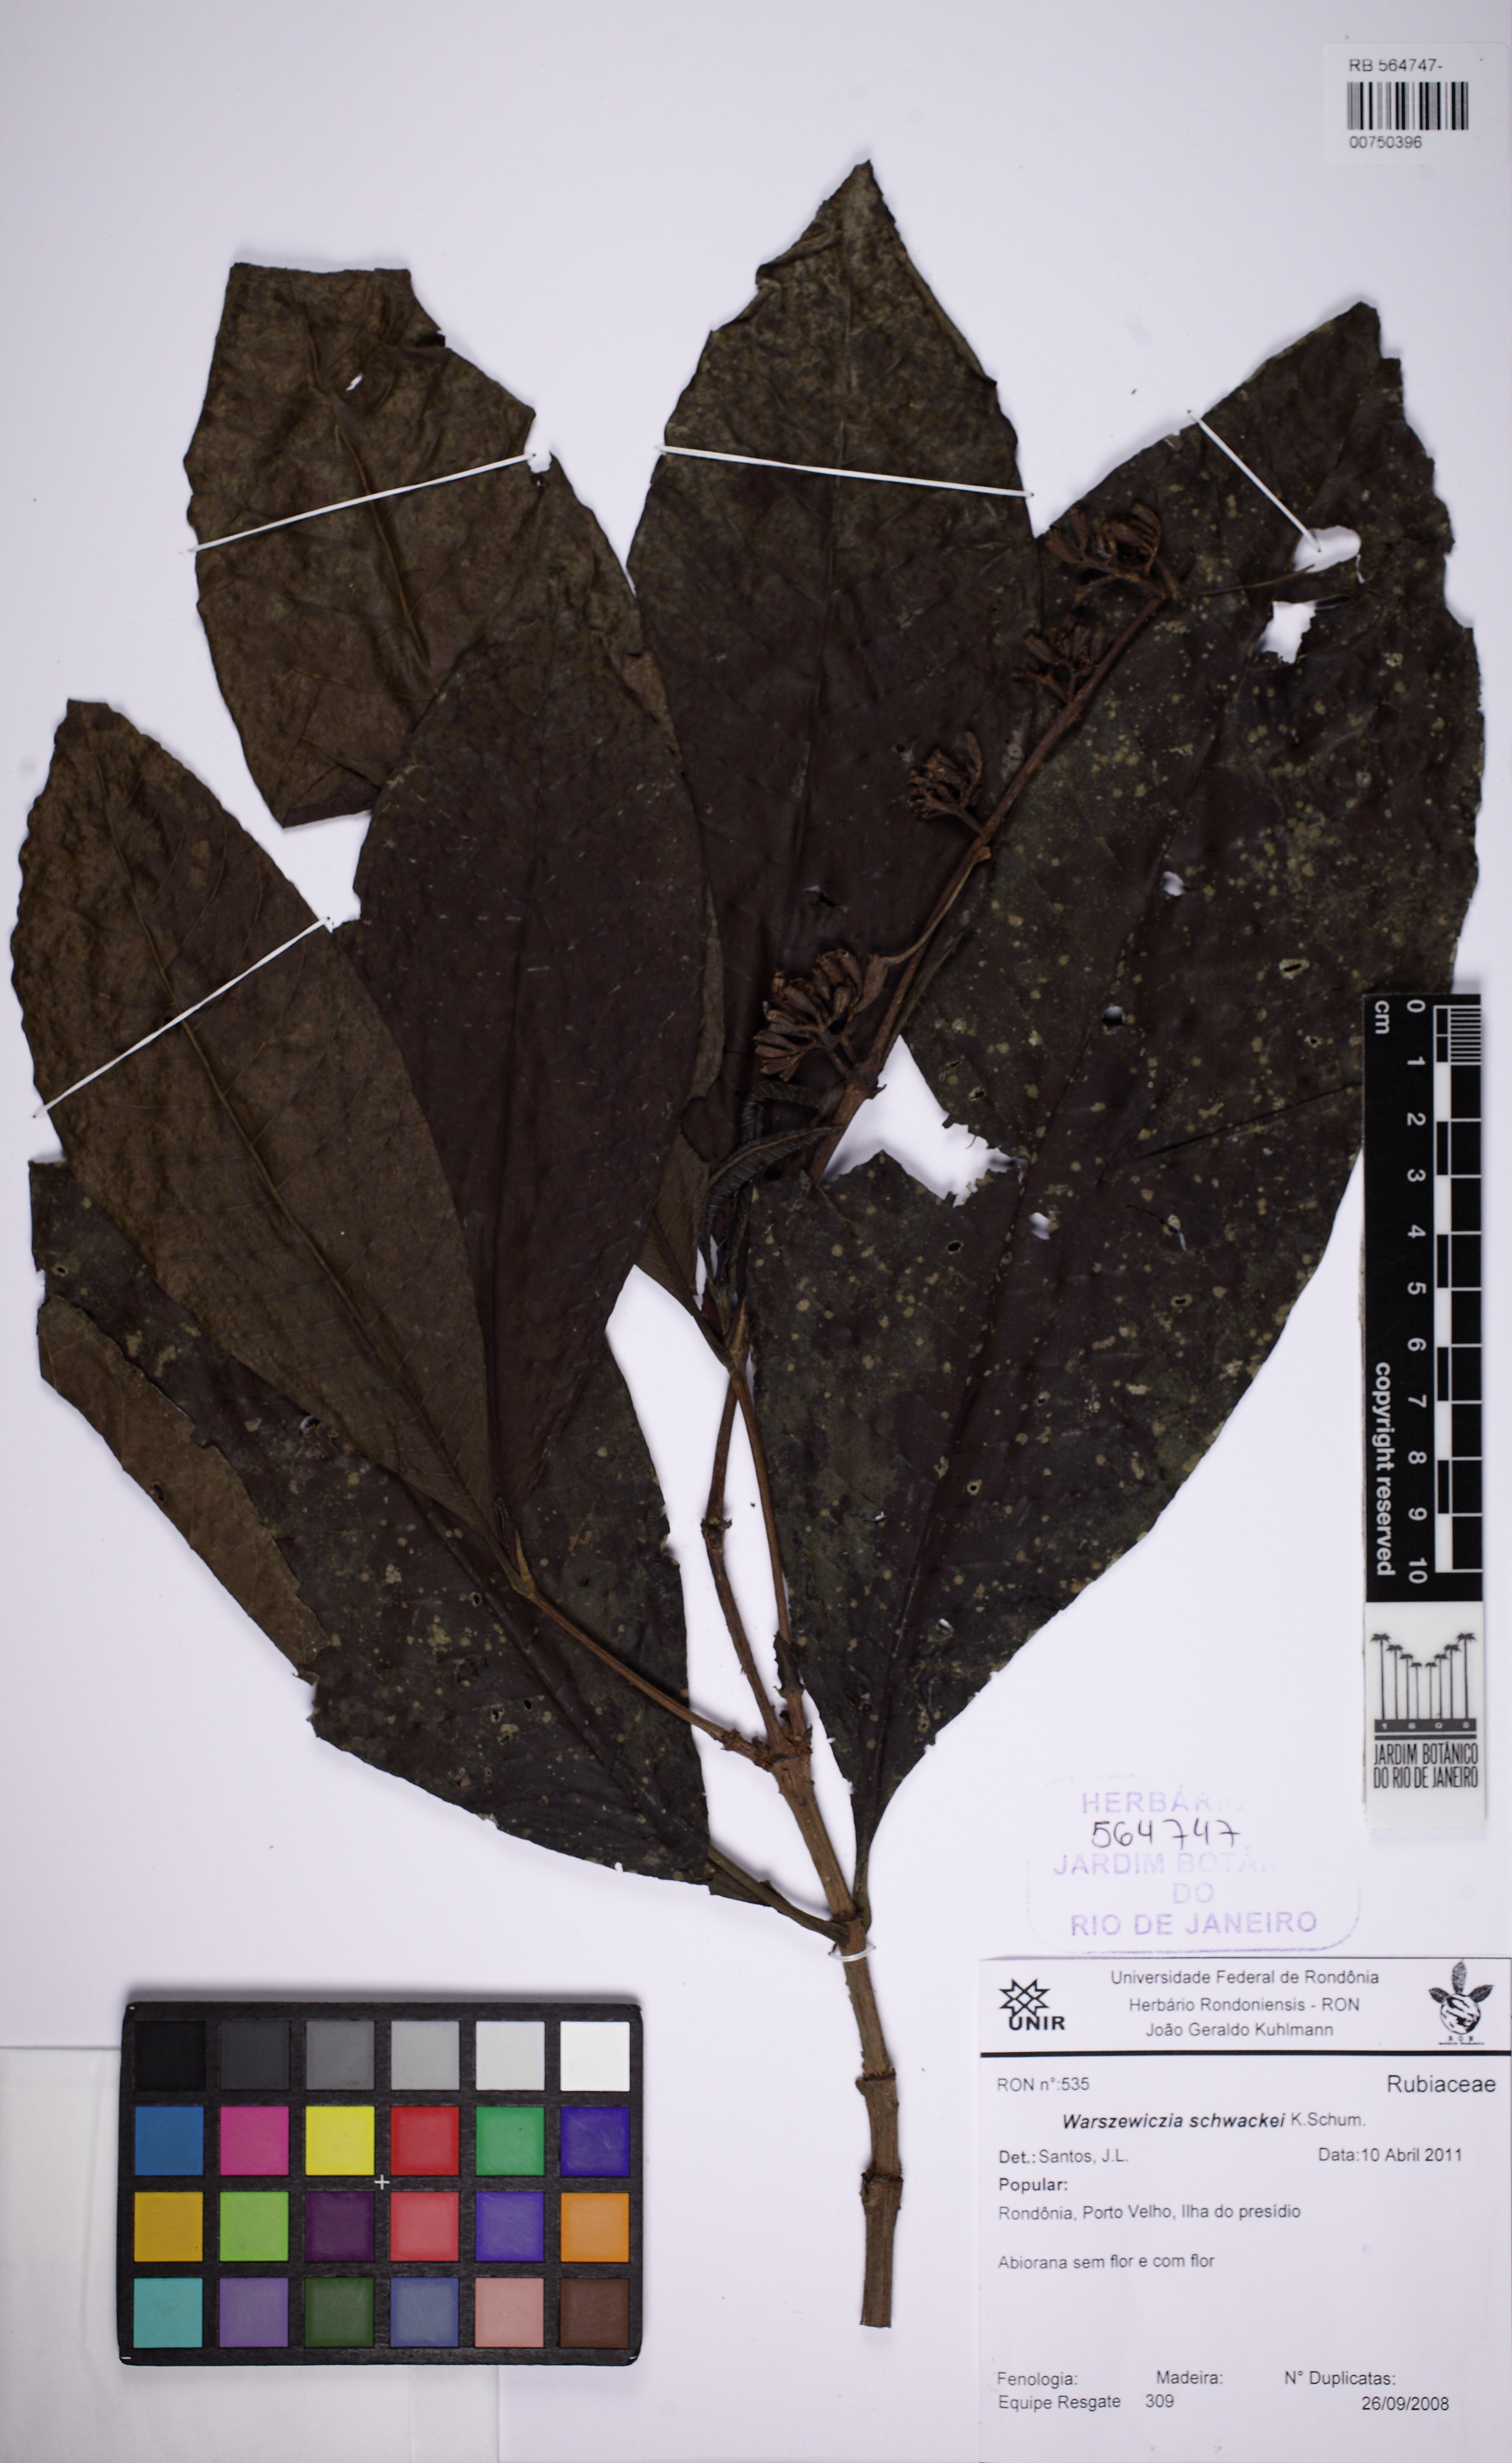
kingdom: Plantae
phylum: Tracheophyta
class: Magnoliopsida
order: Gentianales
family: Rubiaceae
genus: Warszewiczia
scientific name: Warszewiczia coccinea
